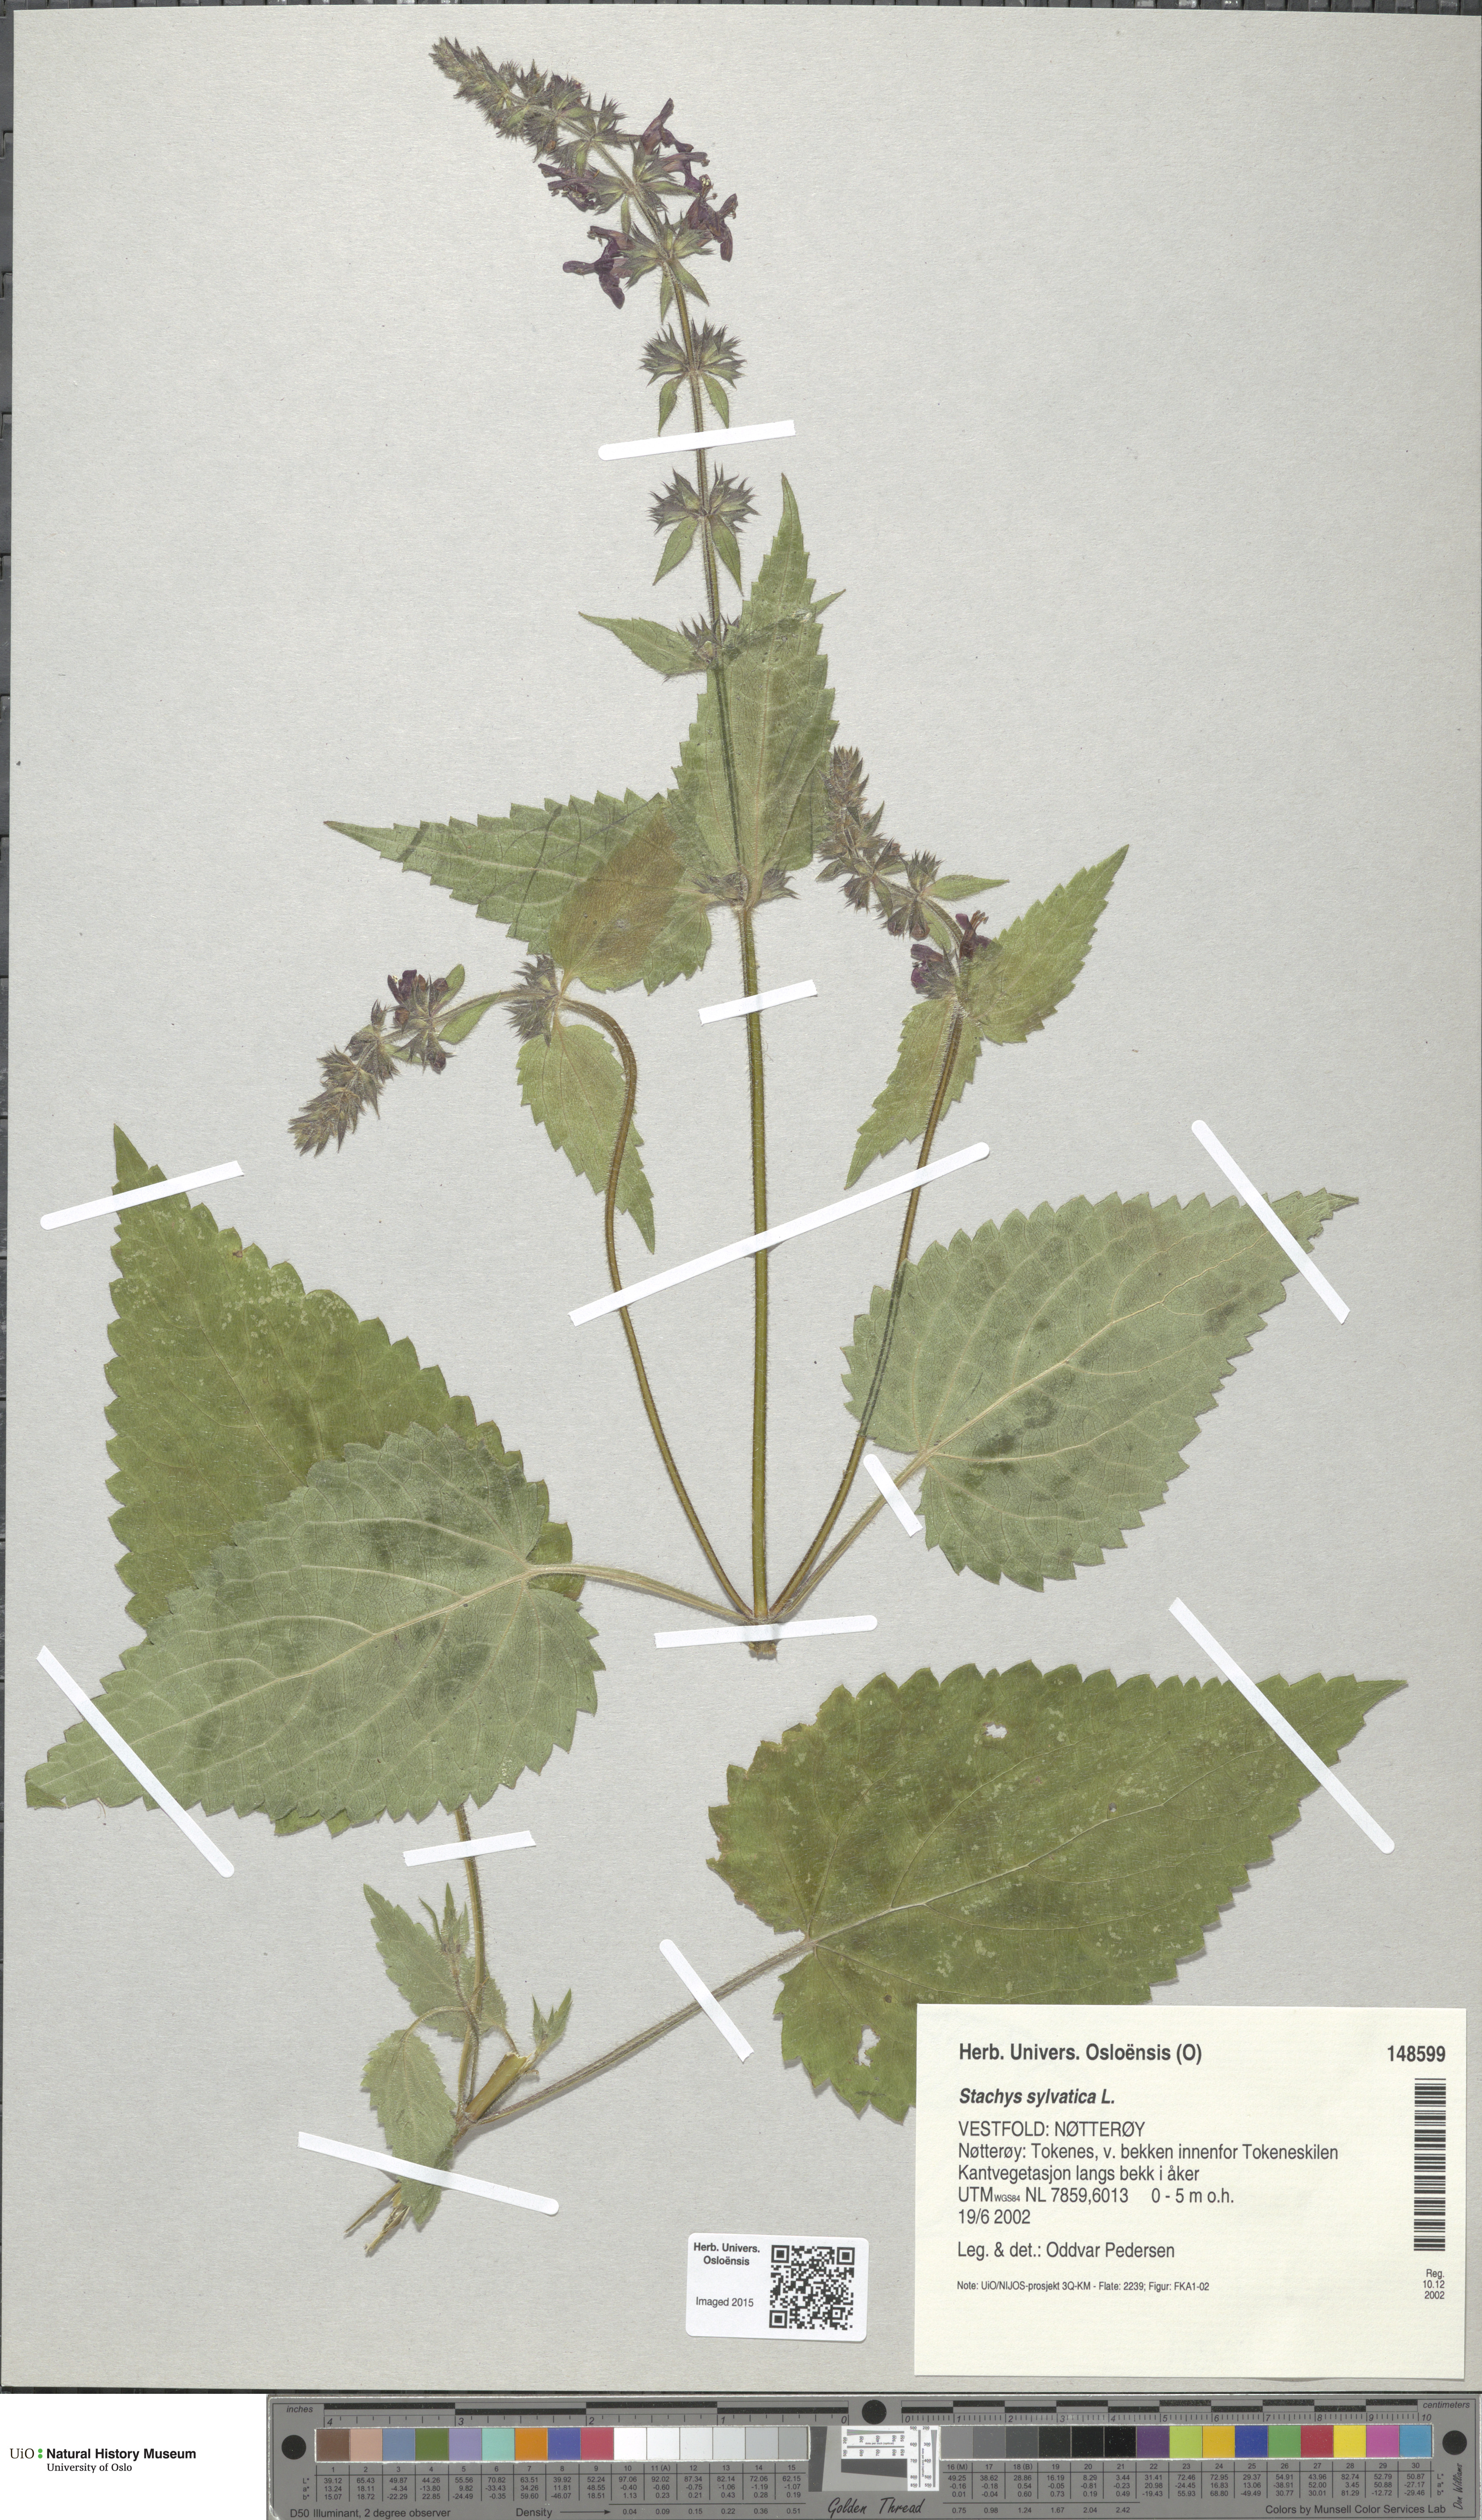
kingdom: Plantae
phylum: Tracheophyta
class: Magnoliopsida
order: Lamiales
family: Lamiaceae
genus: Stachys
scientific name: Stachys sylvatica
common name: Hedge woundwort
